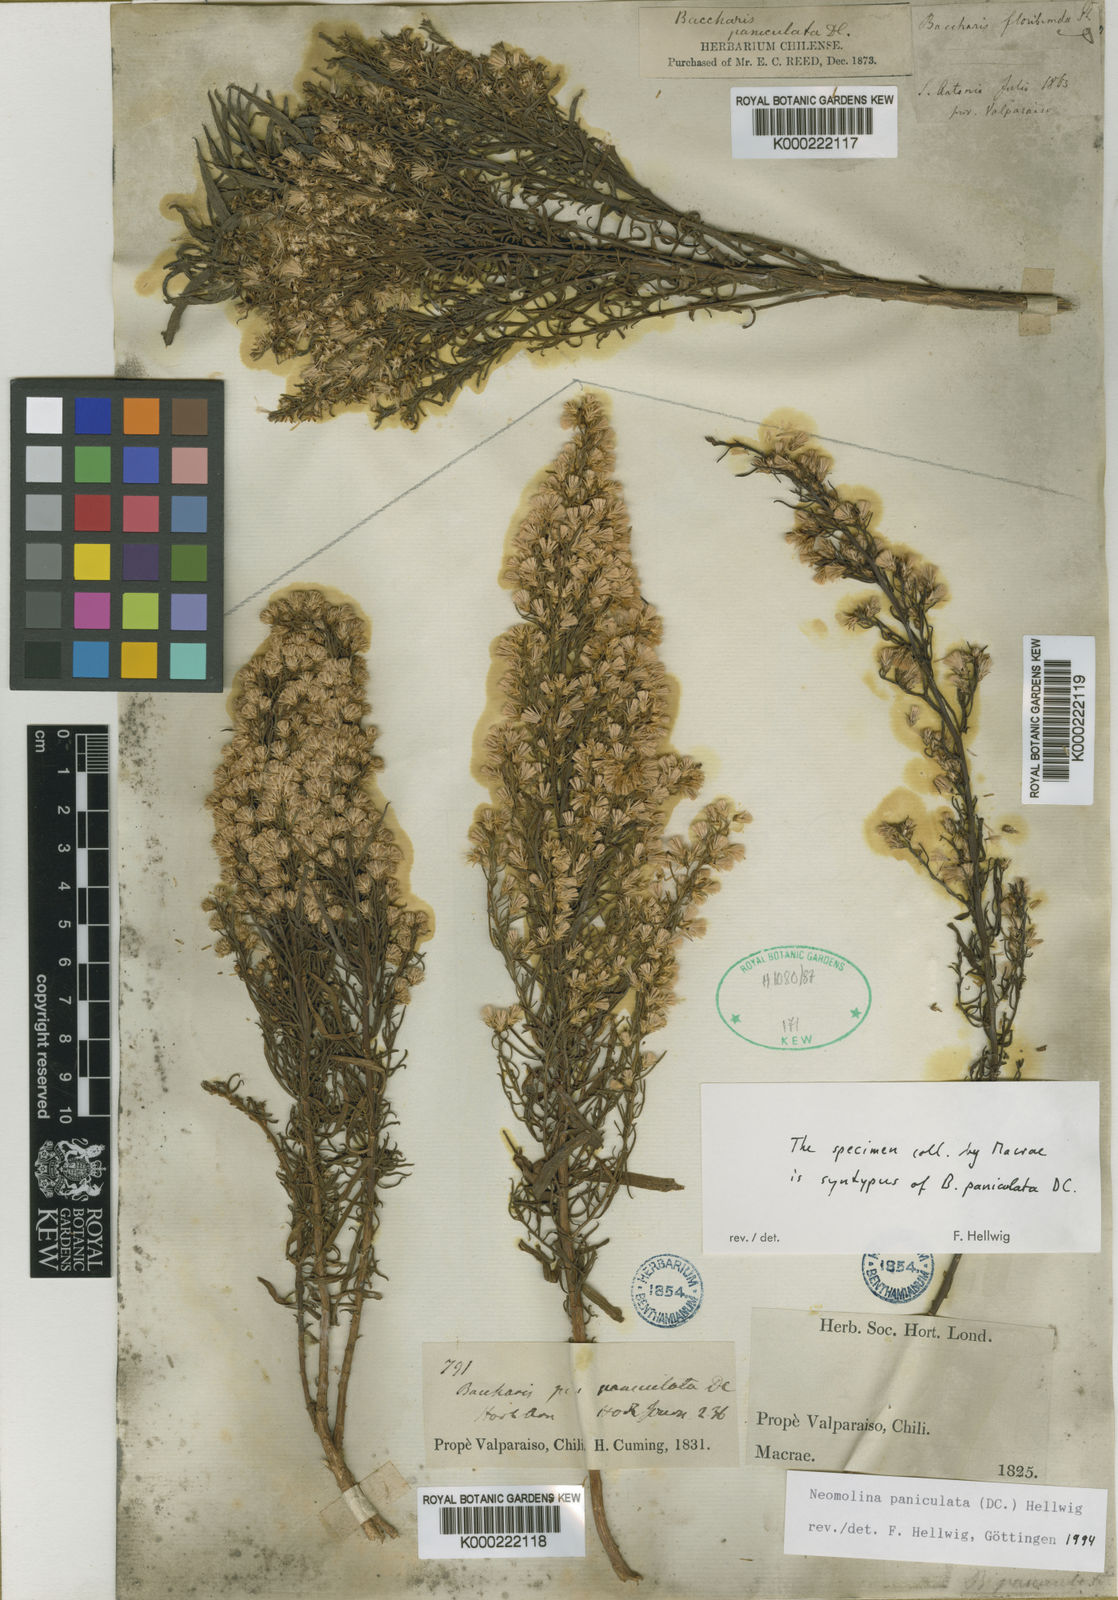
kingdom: Plantae
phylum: Tracheophyta
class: Magnoliopsida
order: Asterales
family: Asteraceae
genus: Baccharis
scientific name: Baccharis paniculata
